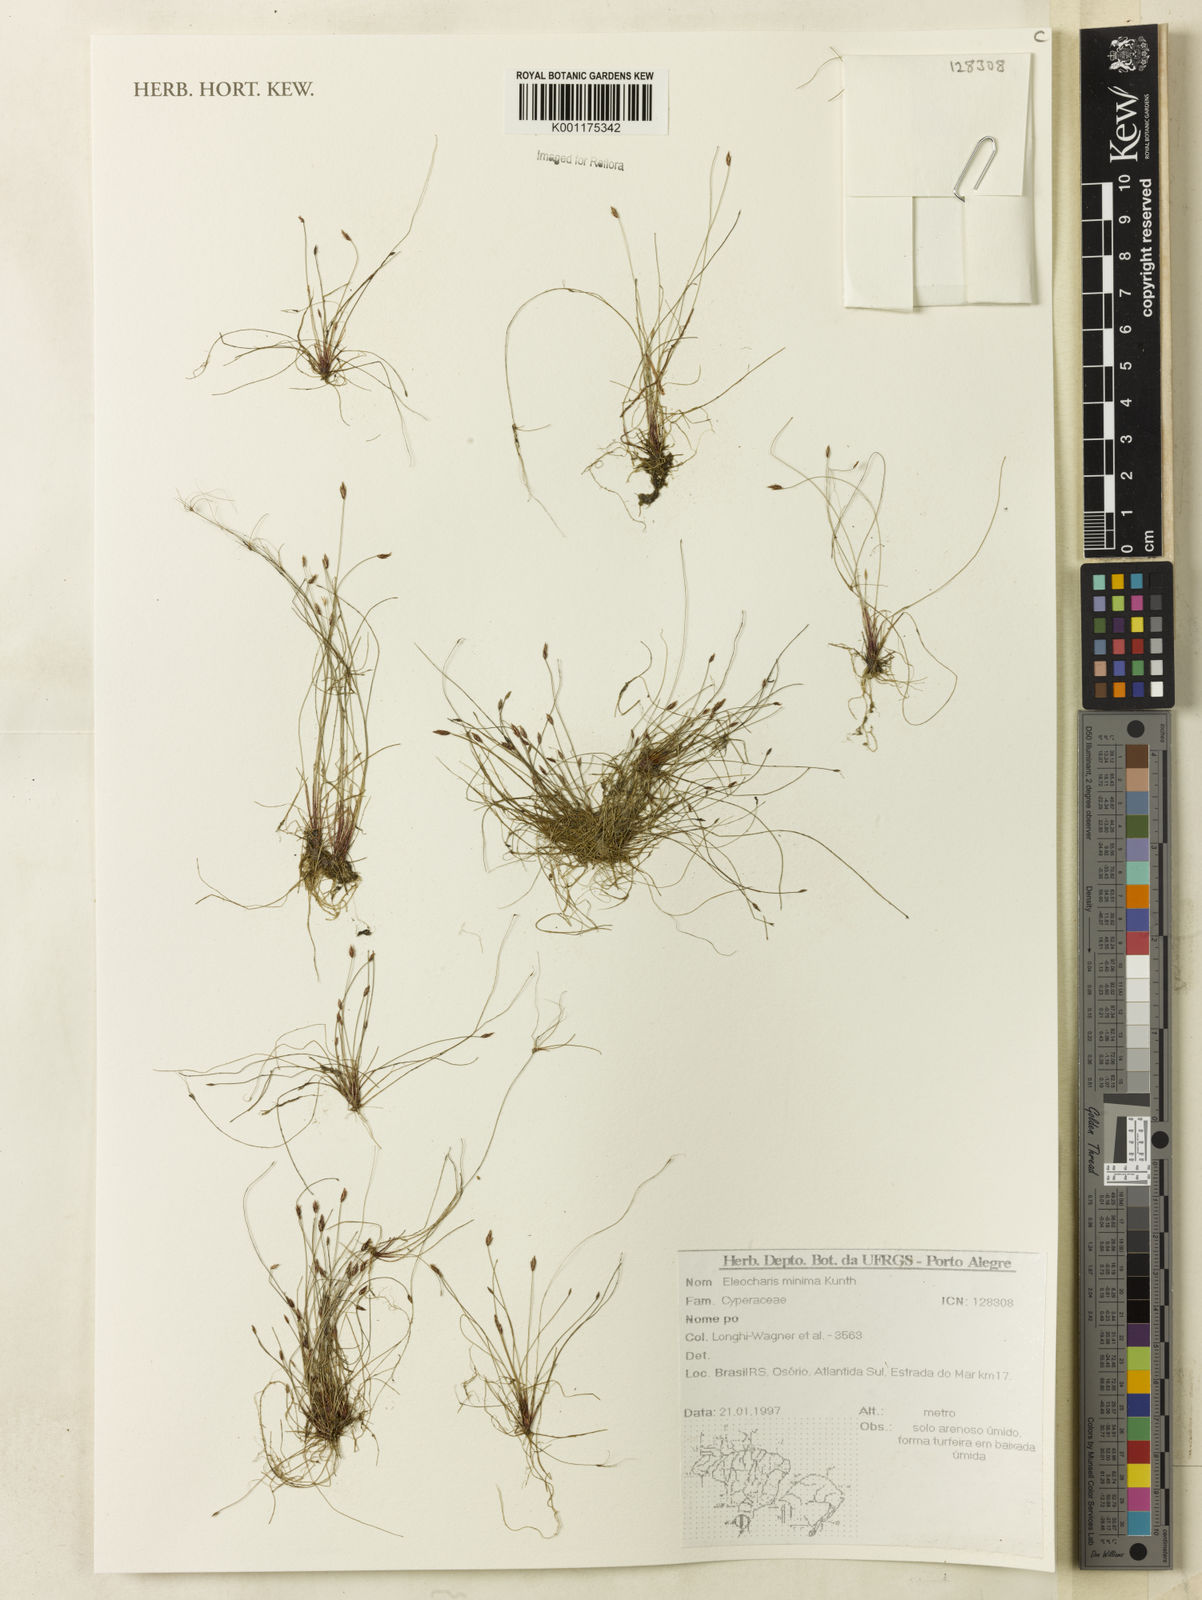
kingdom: Plantae
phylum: Tracheophyta
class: Liliopsida
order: Poales
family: Cyperaceae
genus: Eleocharis
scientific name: Eleocharis minima
